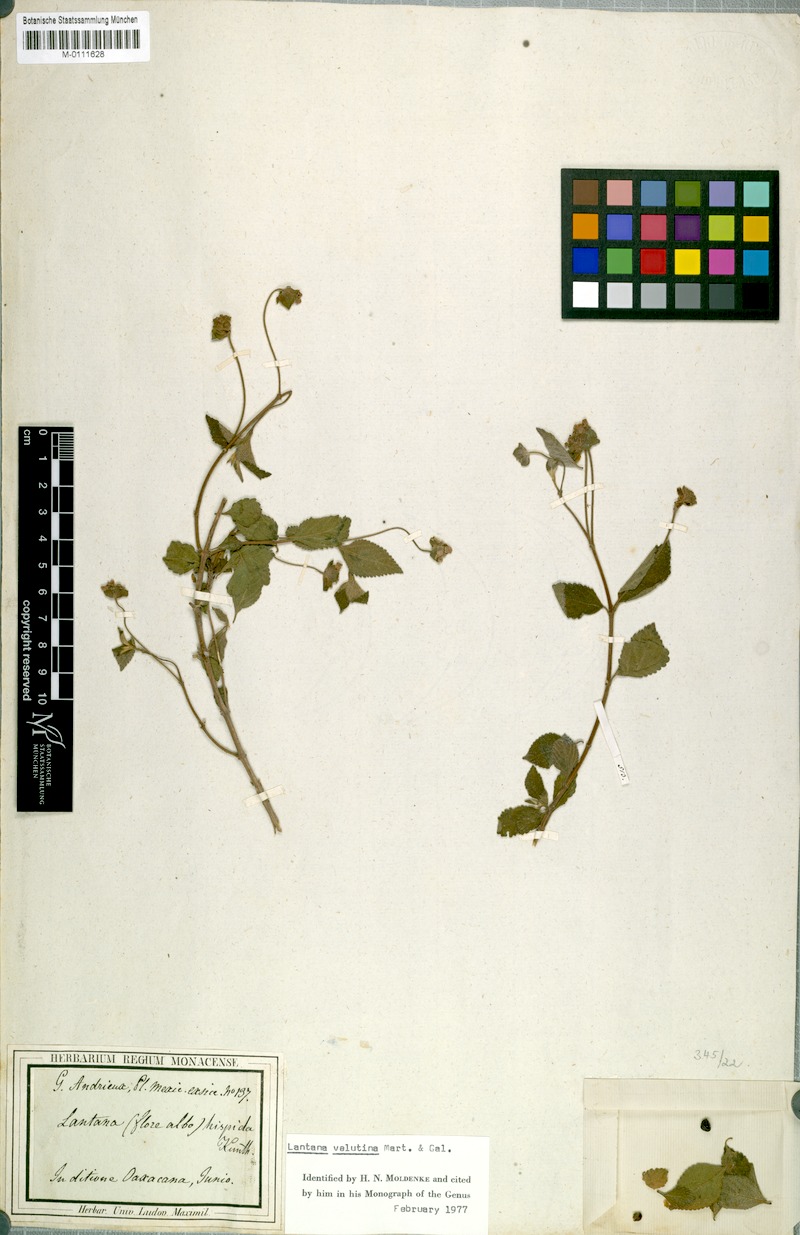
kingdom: Plantae
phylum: Tracheophyta
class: Magnoliopsida
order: Lamiales
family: Verbenaceae
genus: Lantana
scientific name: Lantana horrida
